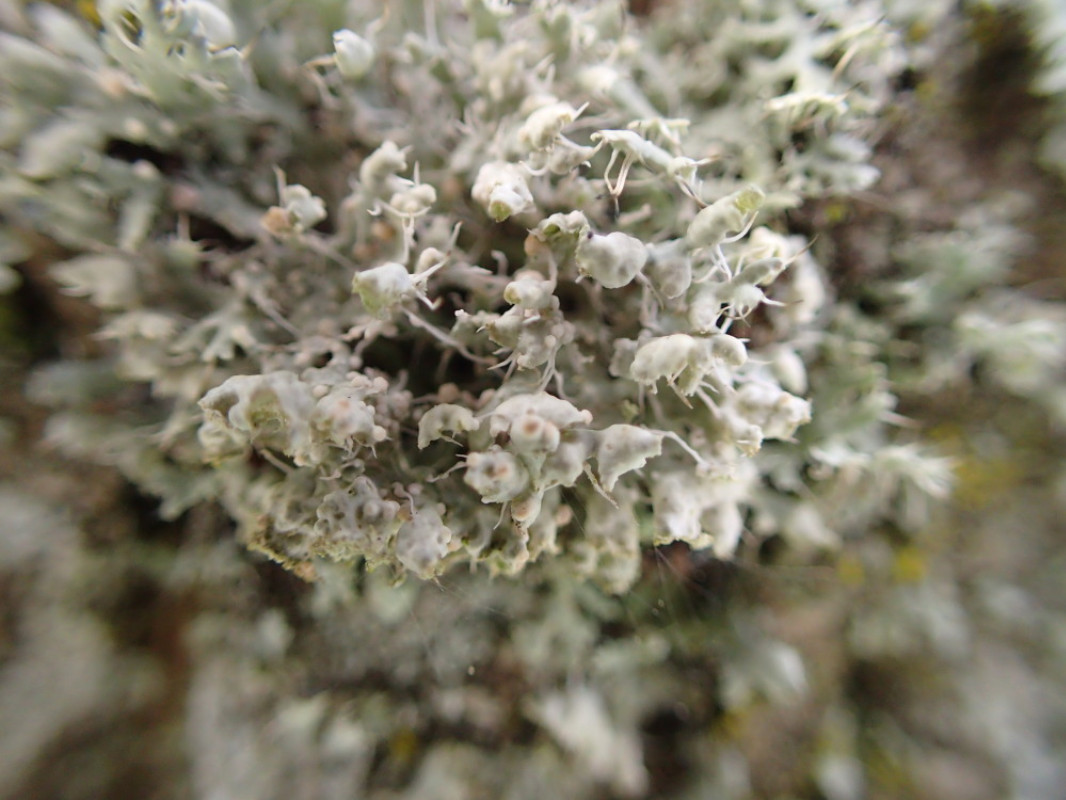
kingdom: Fungi
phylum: Ascomycota
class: Lecanoromycetes
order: Caliciales
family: Physciaceae
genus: Physcia
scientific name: Physcia adscendens
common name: hætte-rosetlav
